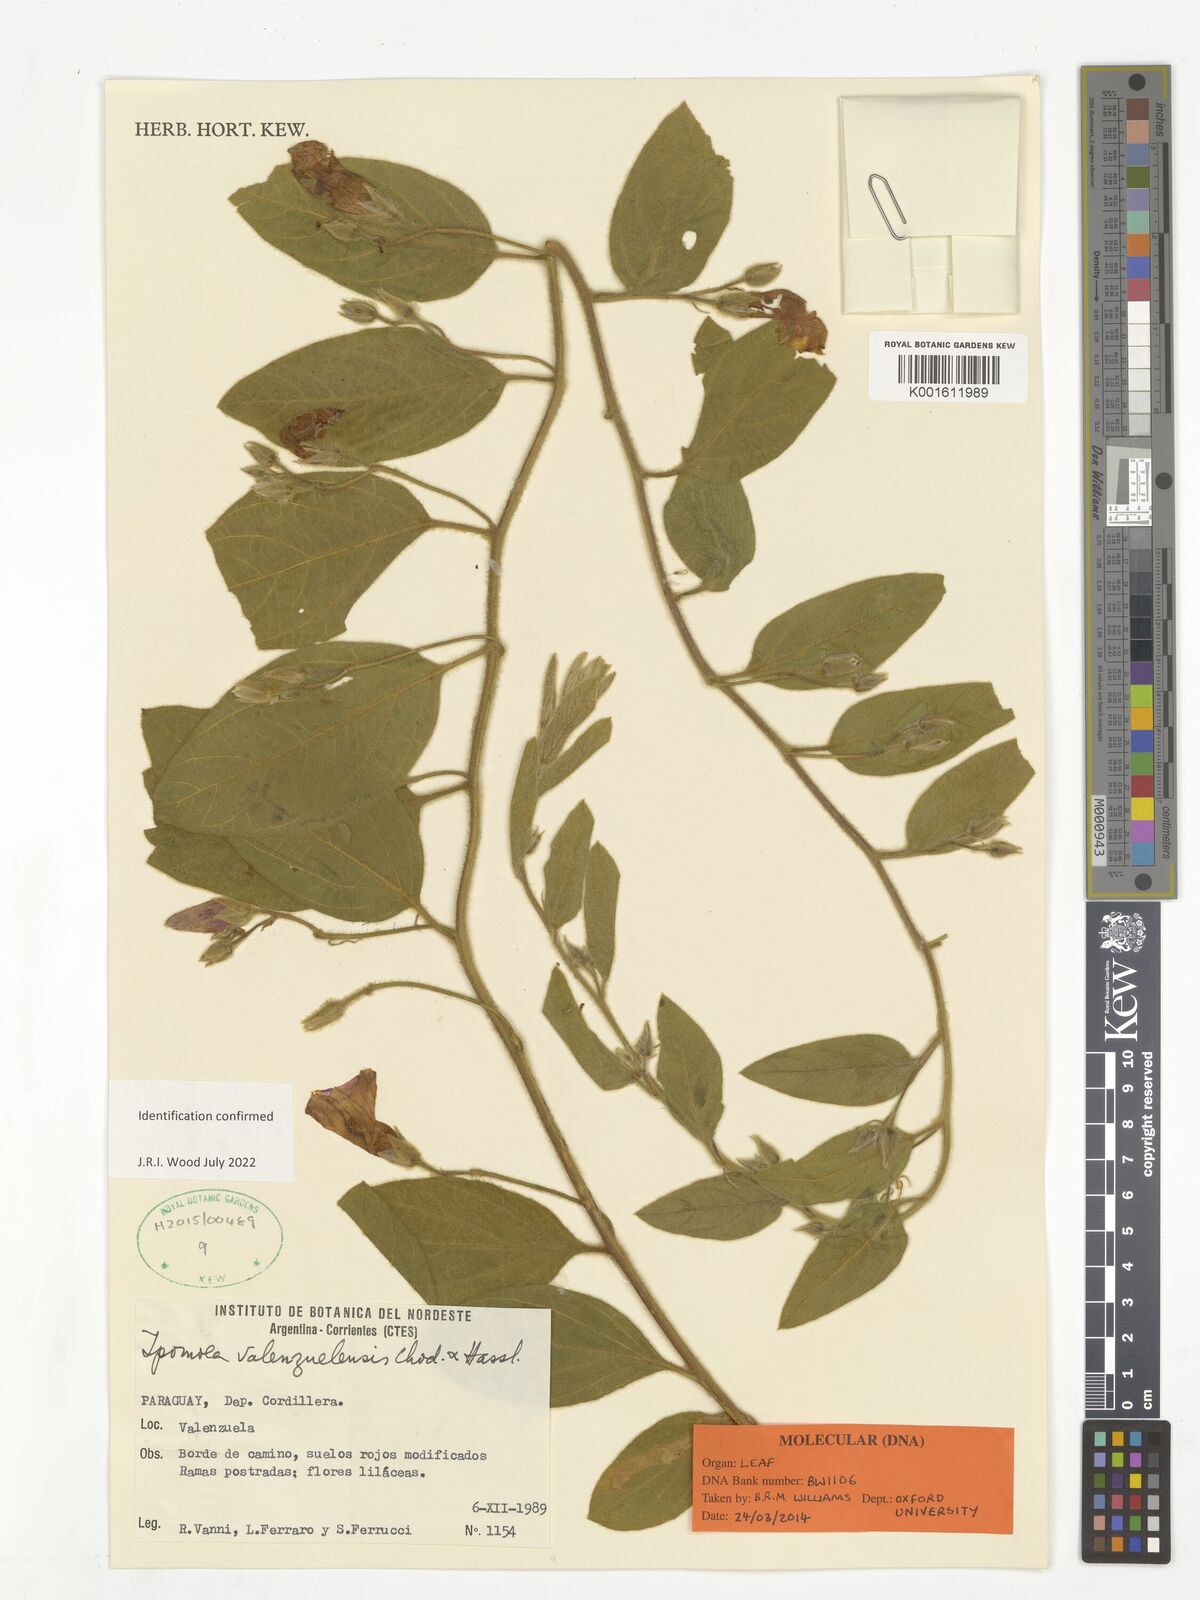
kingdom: Plantae
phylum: Tracheophyta
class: Magnoliopsida
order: Solanales
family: Convolvulaceae
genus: Ipomoea
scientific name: Ipomoea valenzuelensis
